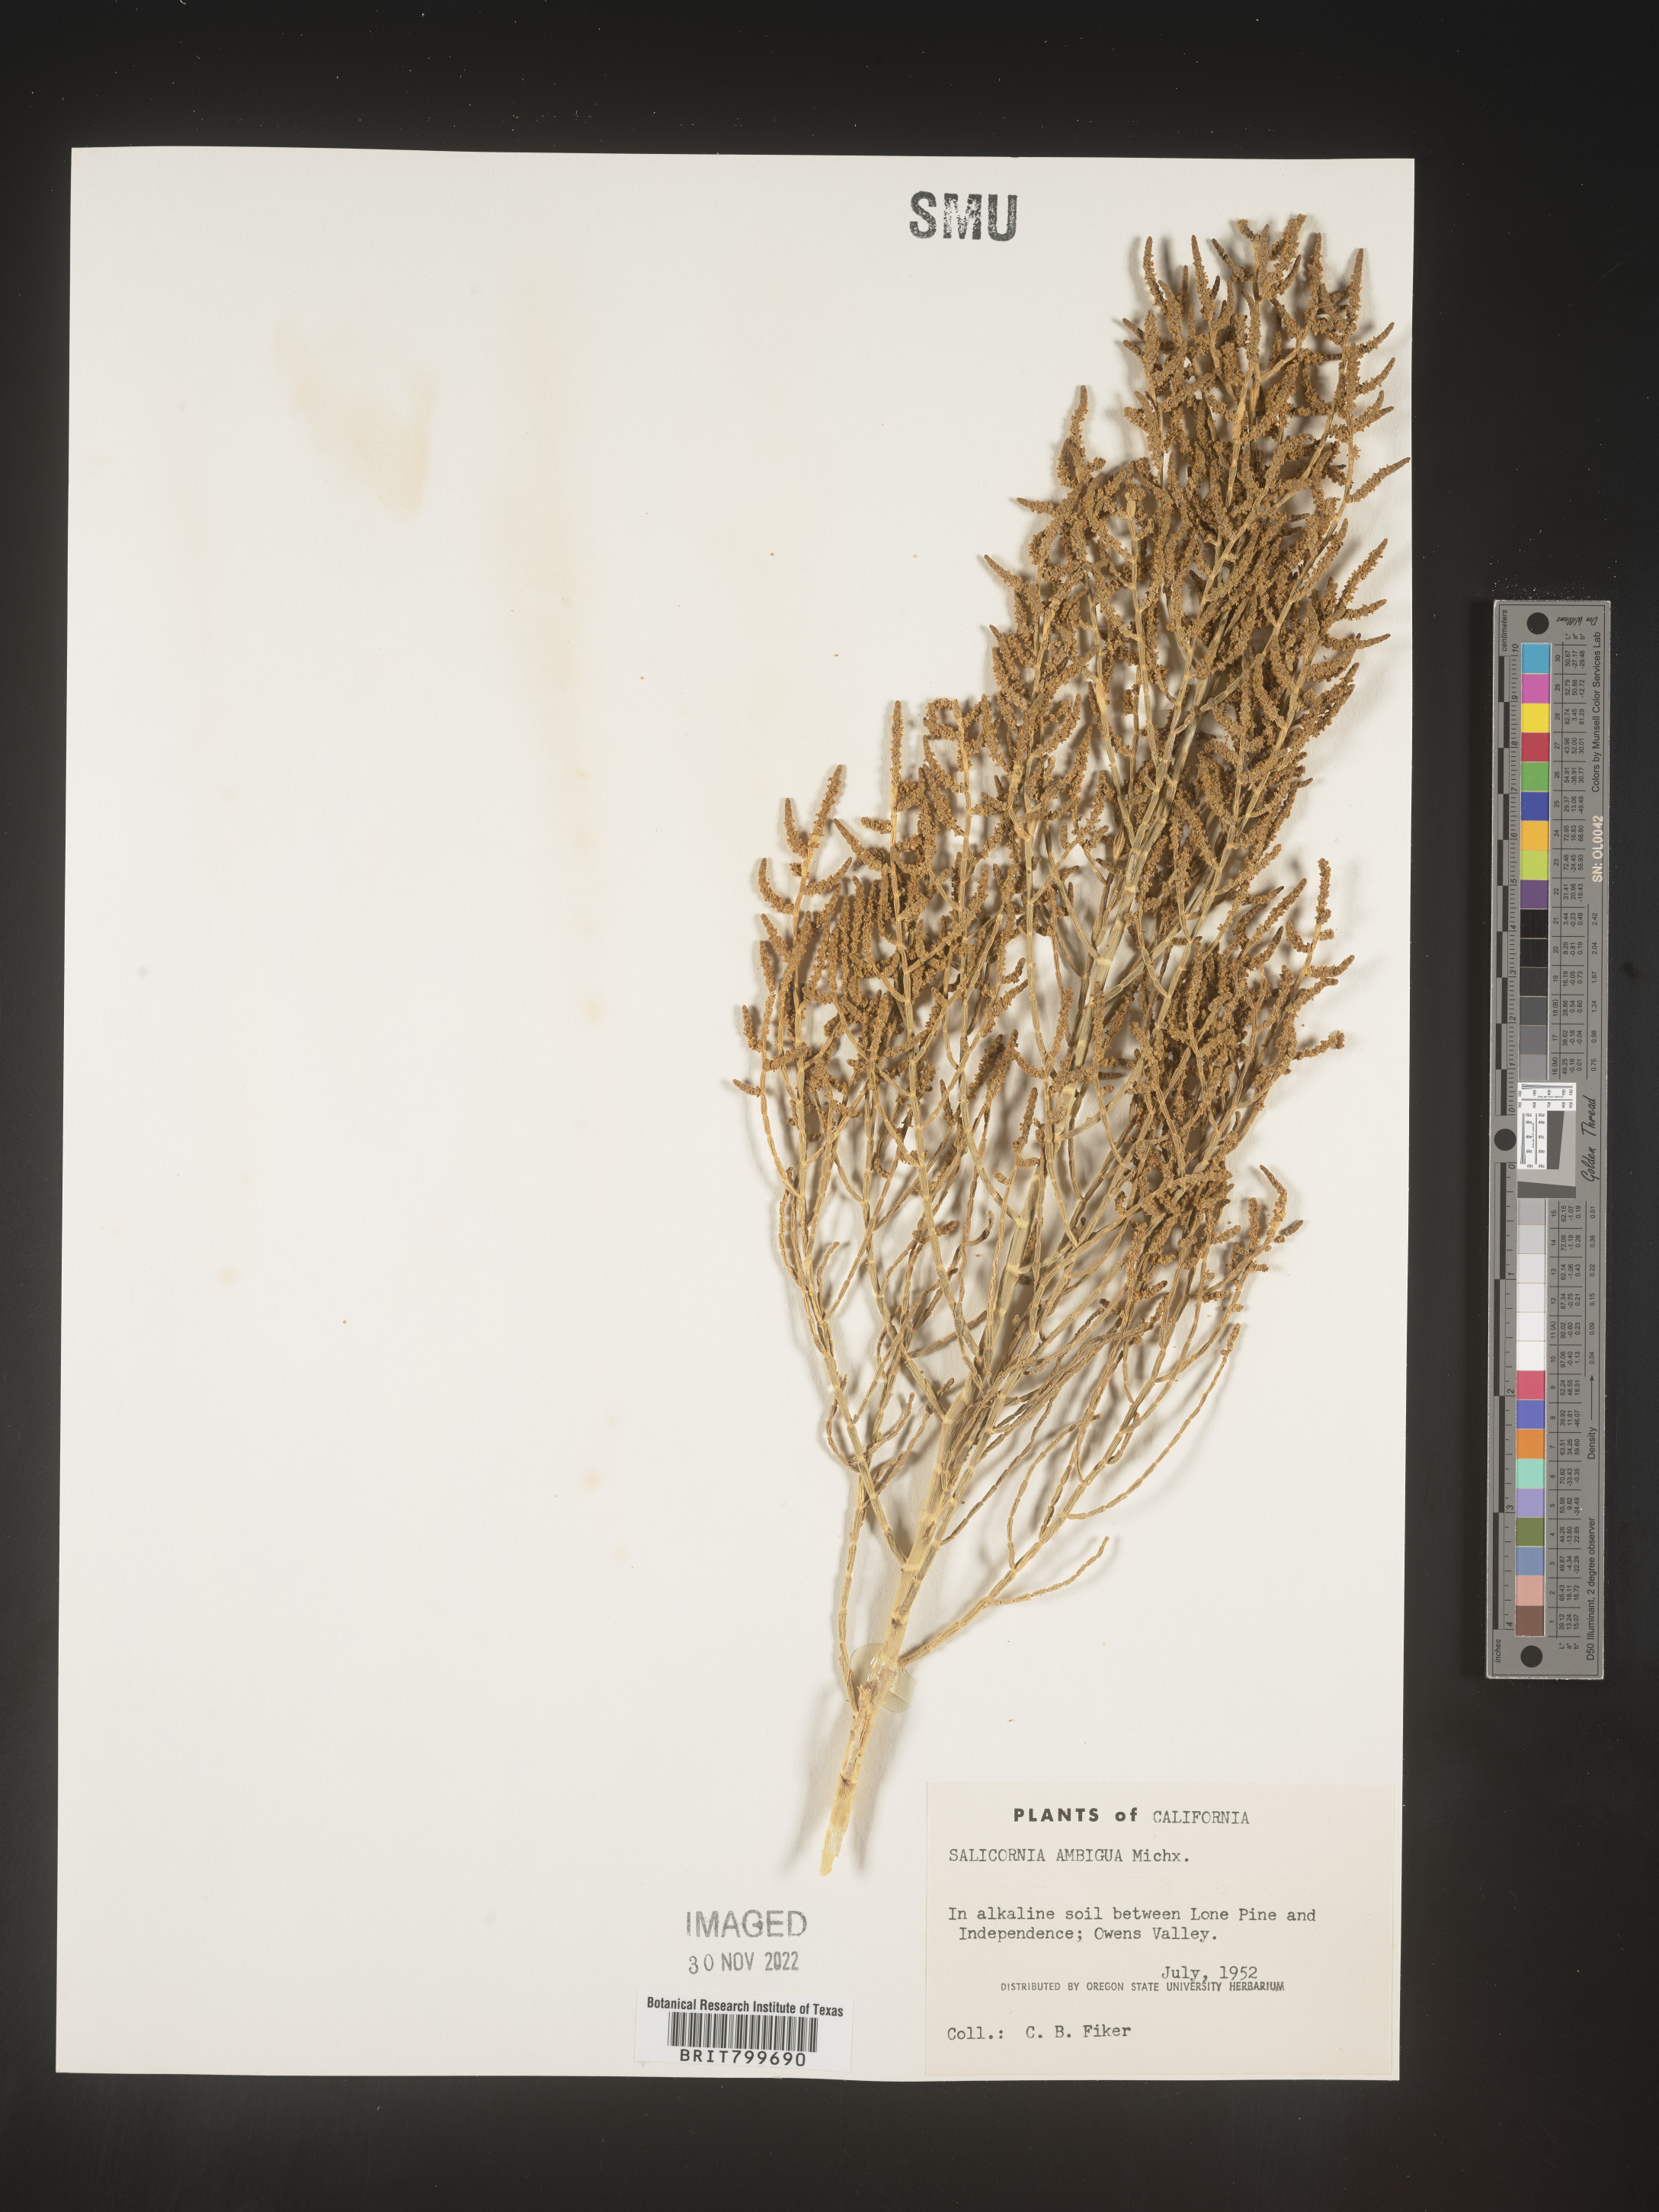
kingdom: Plantae
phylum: Tracheophyta
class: Magnoliopsida
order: Caryophyllales
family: Amaranthaceae
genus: Salicornia
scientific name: Salicornia virginica
